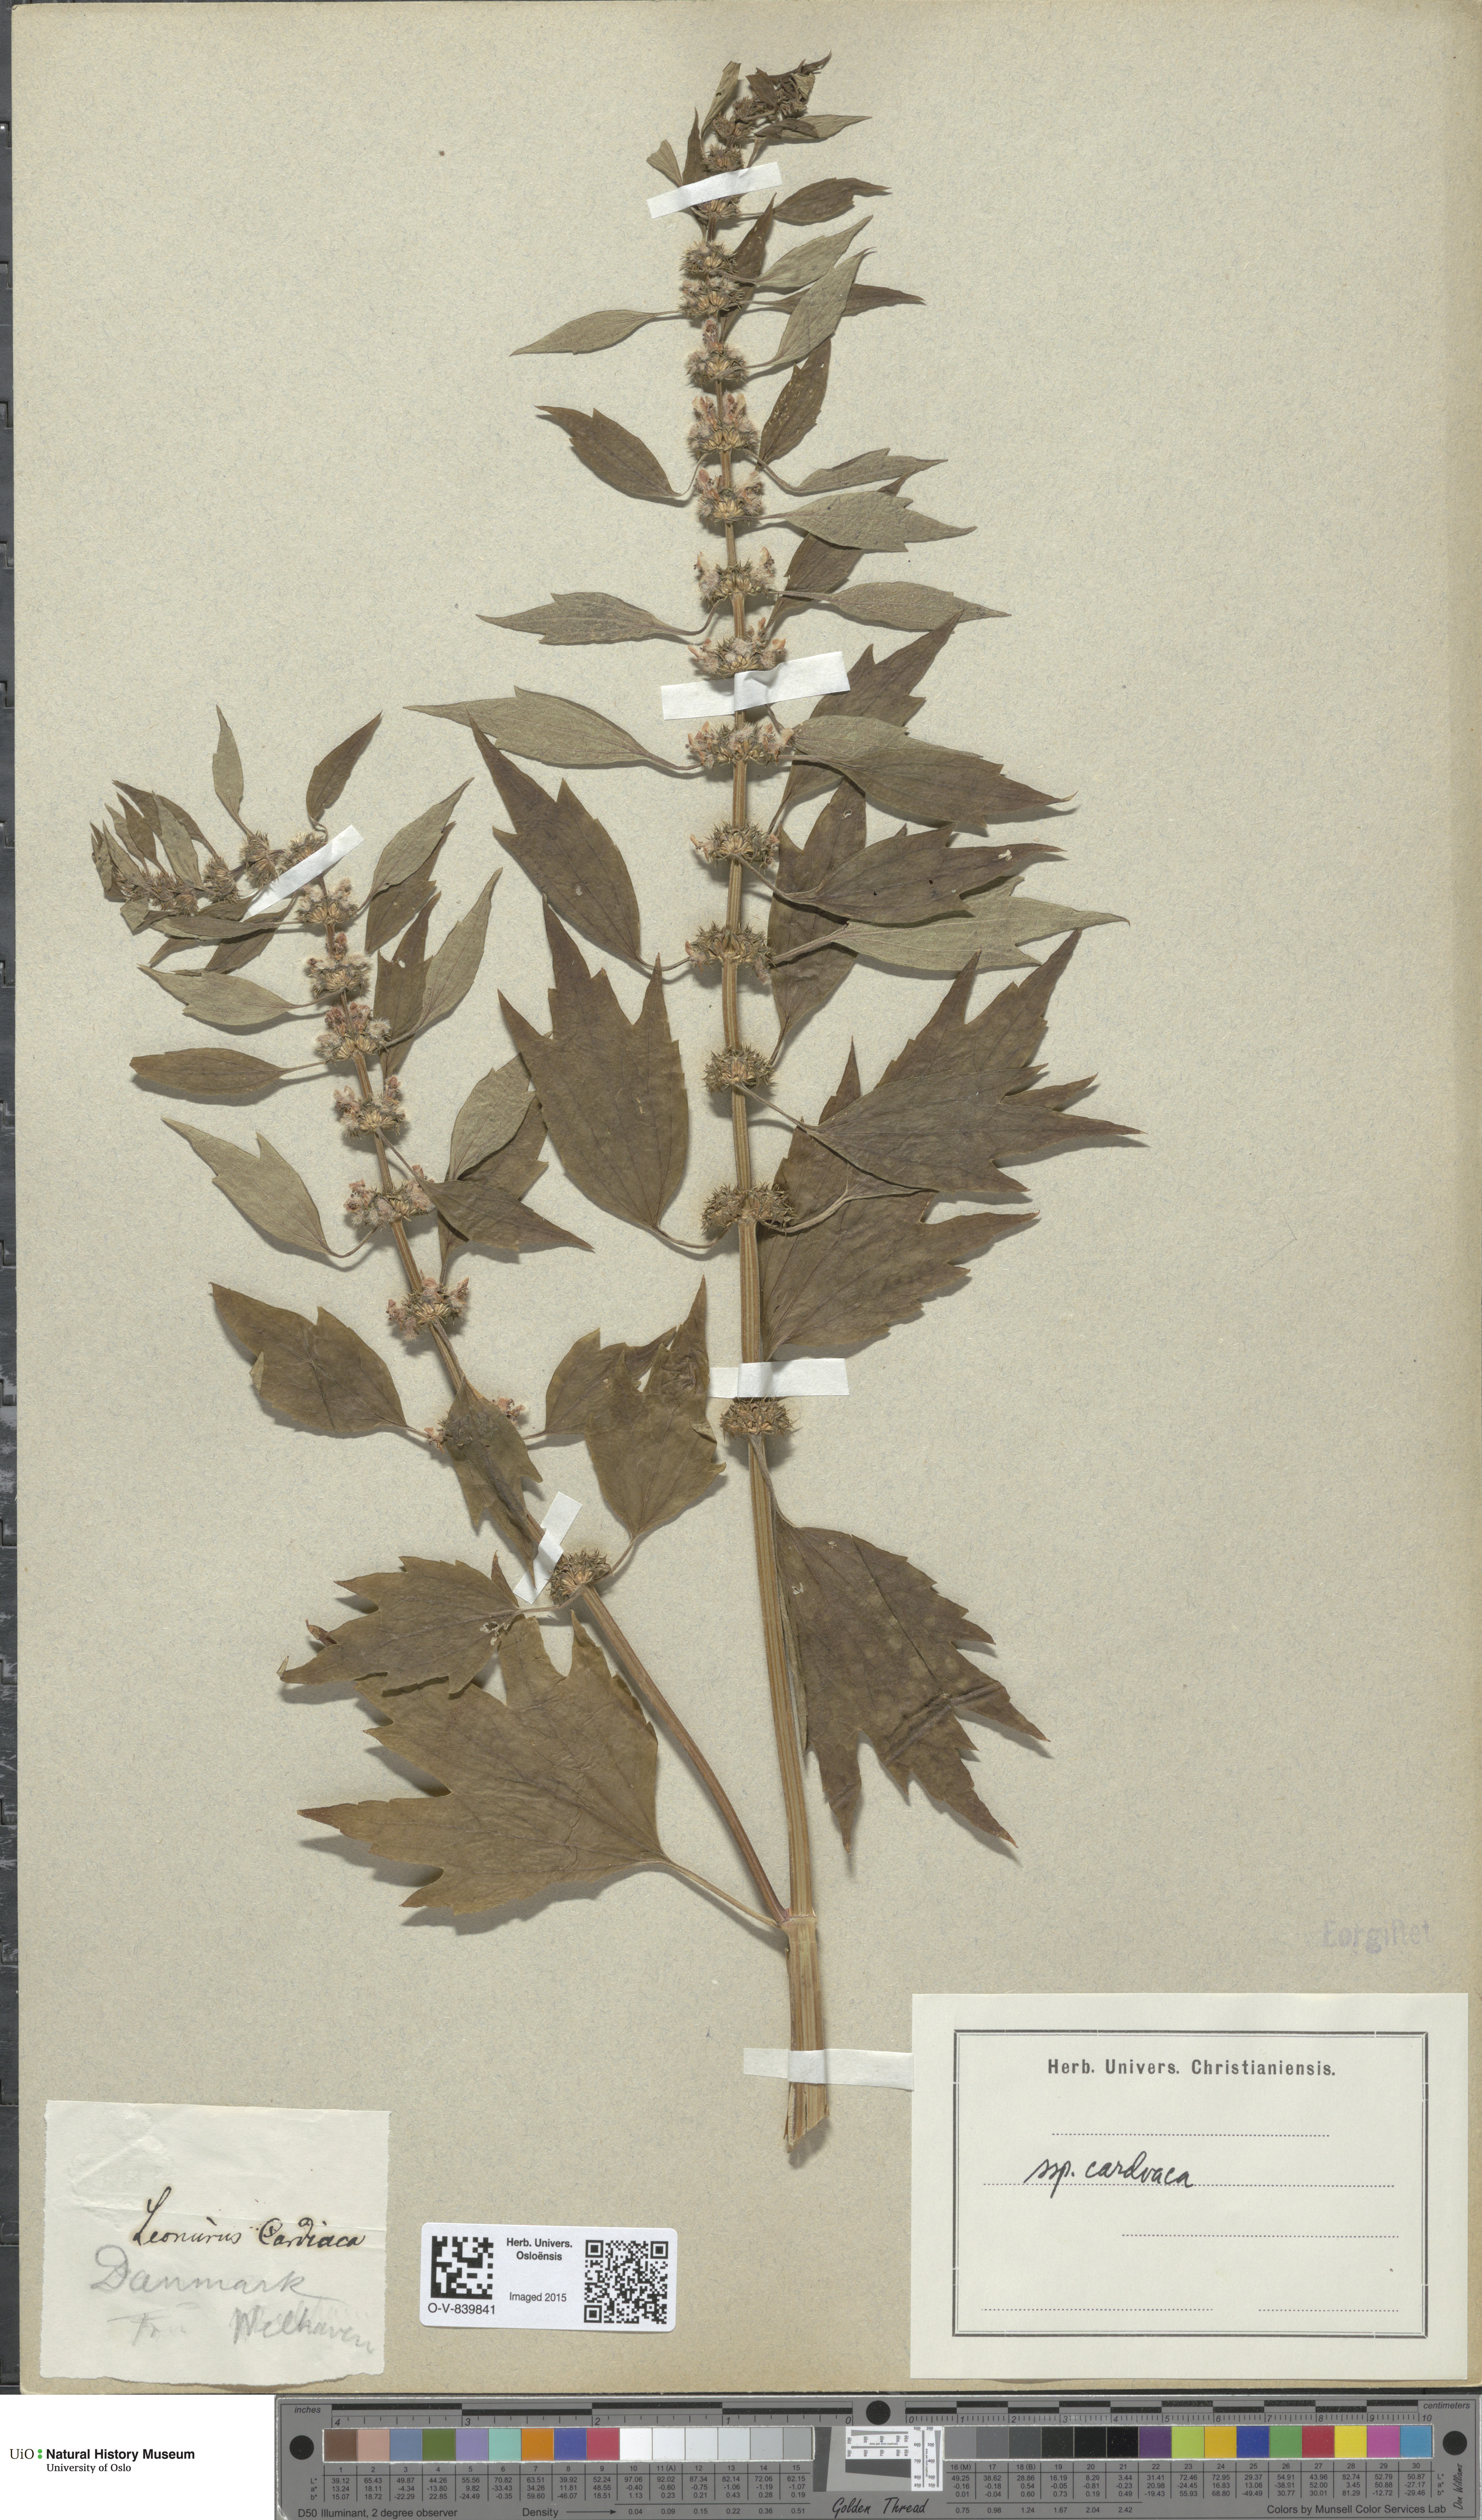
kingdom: Plantae
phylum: Tracheophyta
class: Magnoliopsida
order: Lamiales
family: Lamiaceae
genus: Leonurus
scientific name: Leonurus cardiaca
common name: Motherwort
